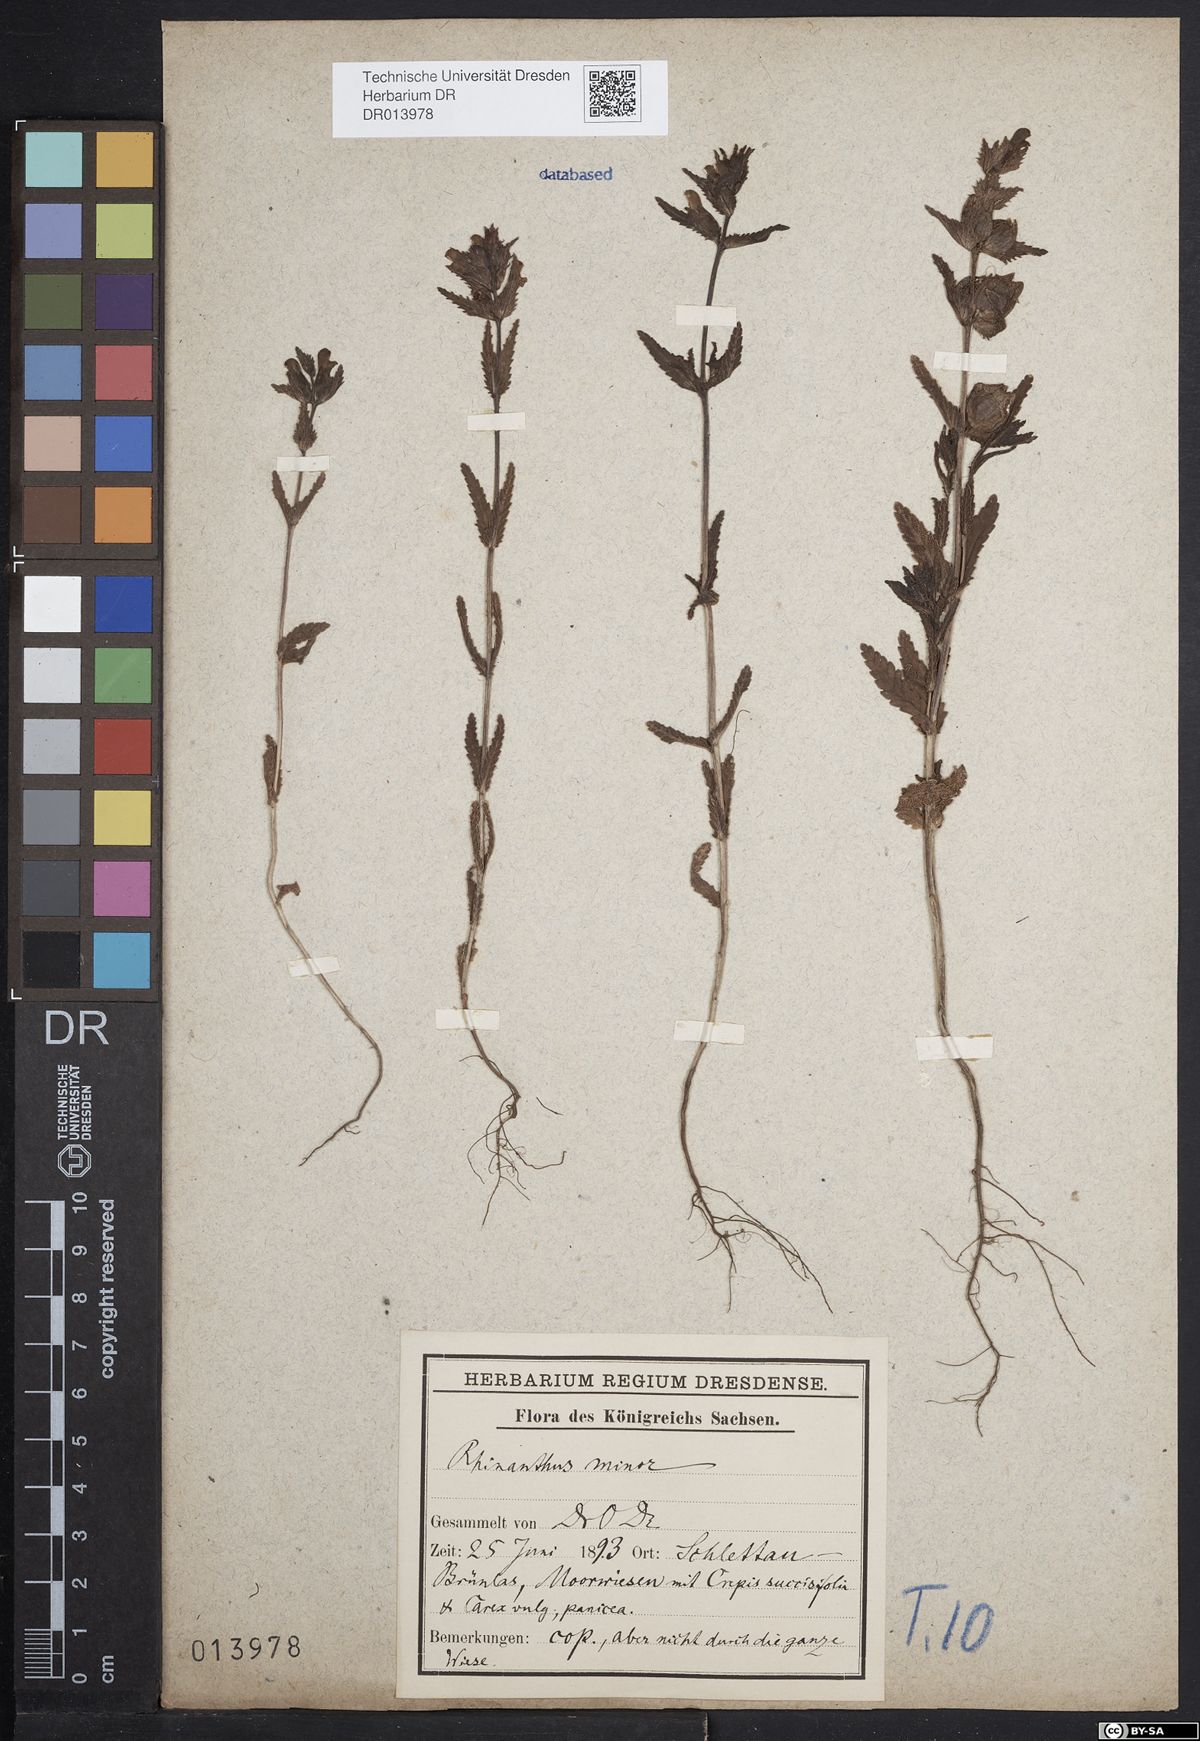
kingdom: Plantae
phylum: Tracheophyta
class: Magnoliopsida
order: Lamiales
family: Orobanchaceae
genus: Rhinanthus
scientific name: Rhinanthus minor
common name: Yellow-rattle
